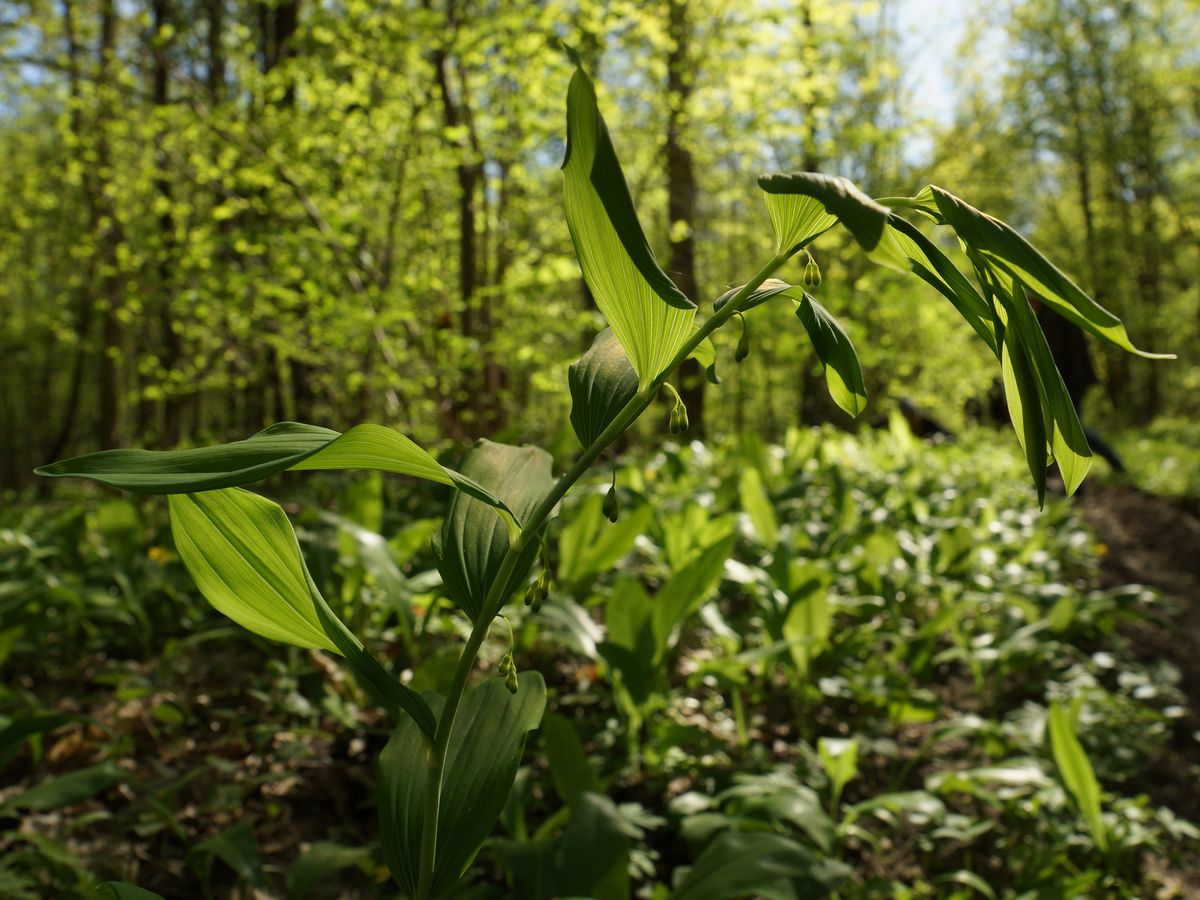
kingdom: Plantae
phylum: Tracheophyta
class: Liliopsida
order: Asparagales
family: Asparagaceae
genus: Polygonatum
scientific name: Polygonatum
